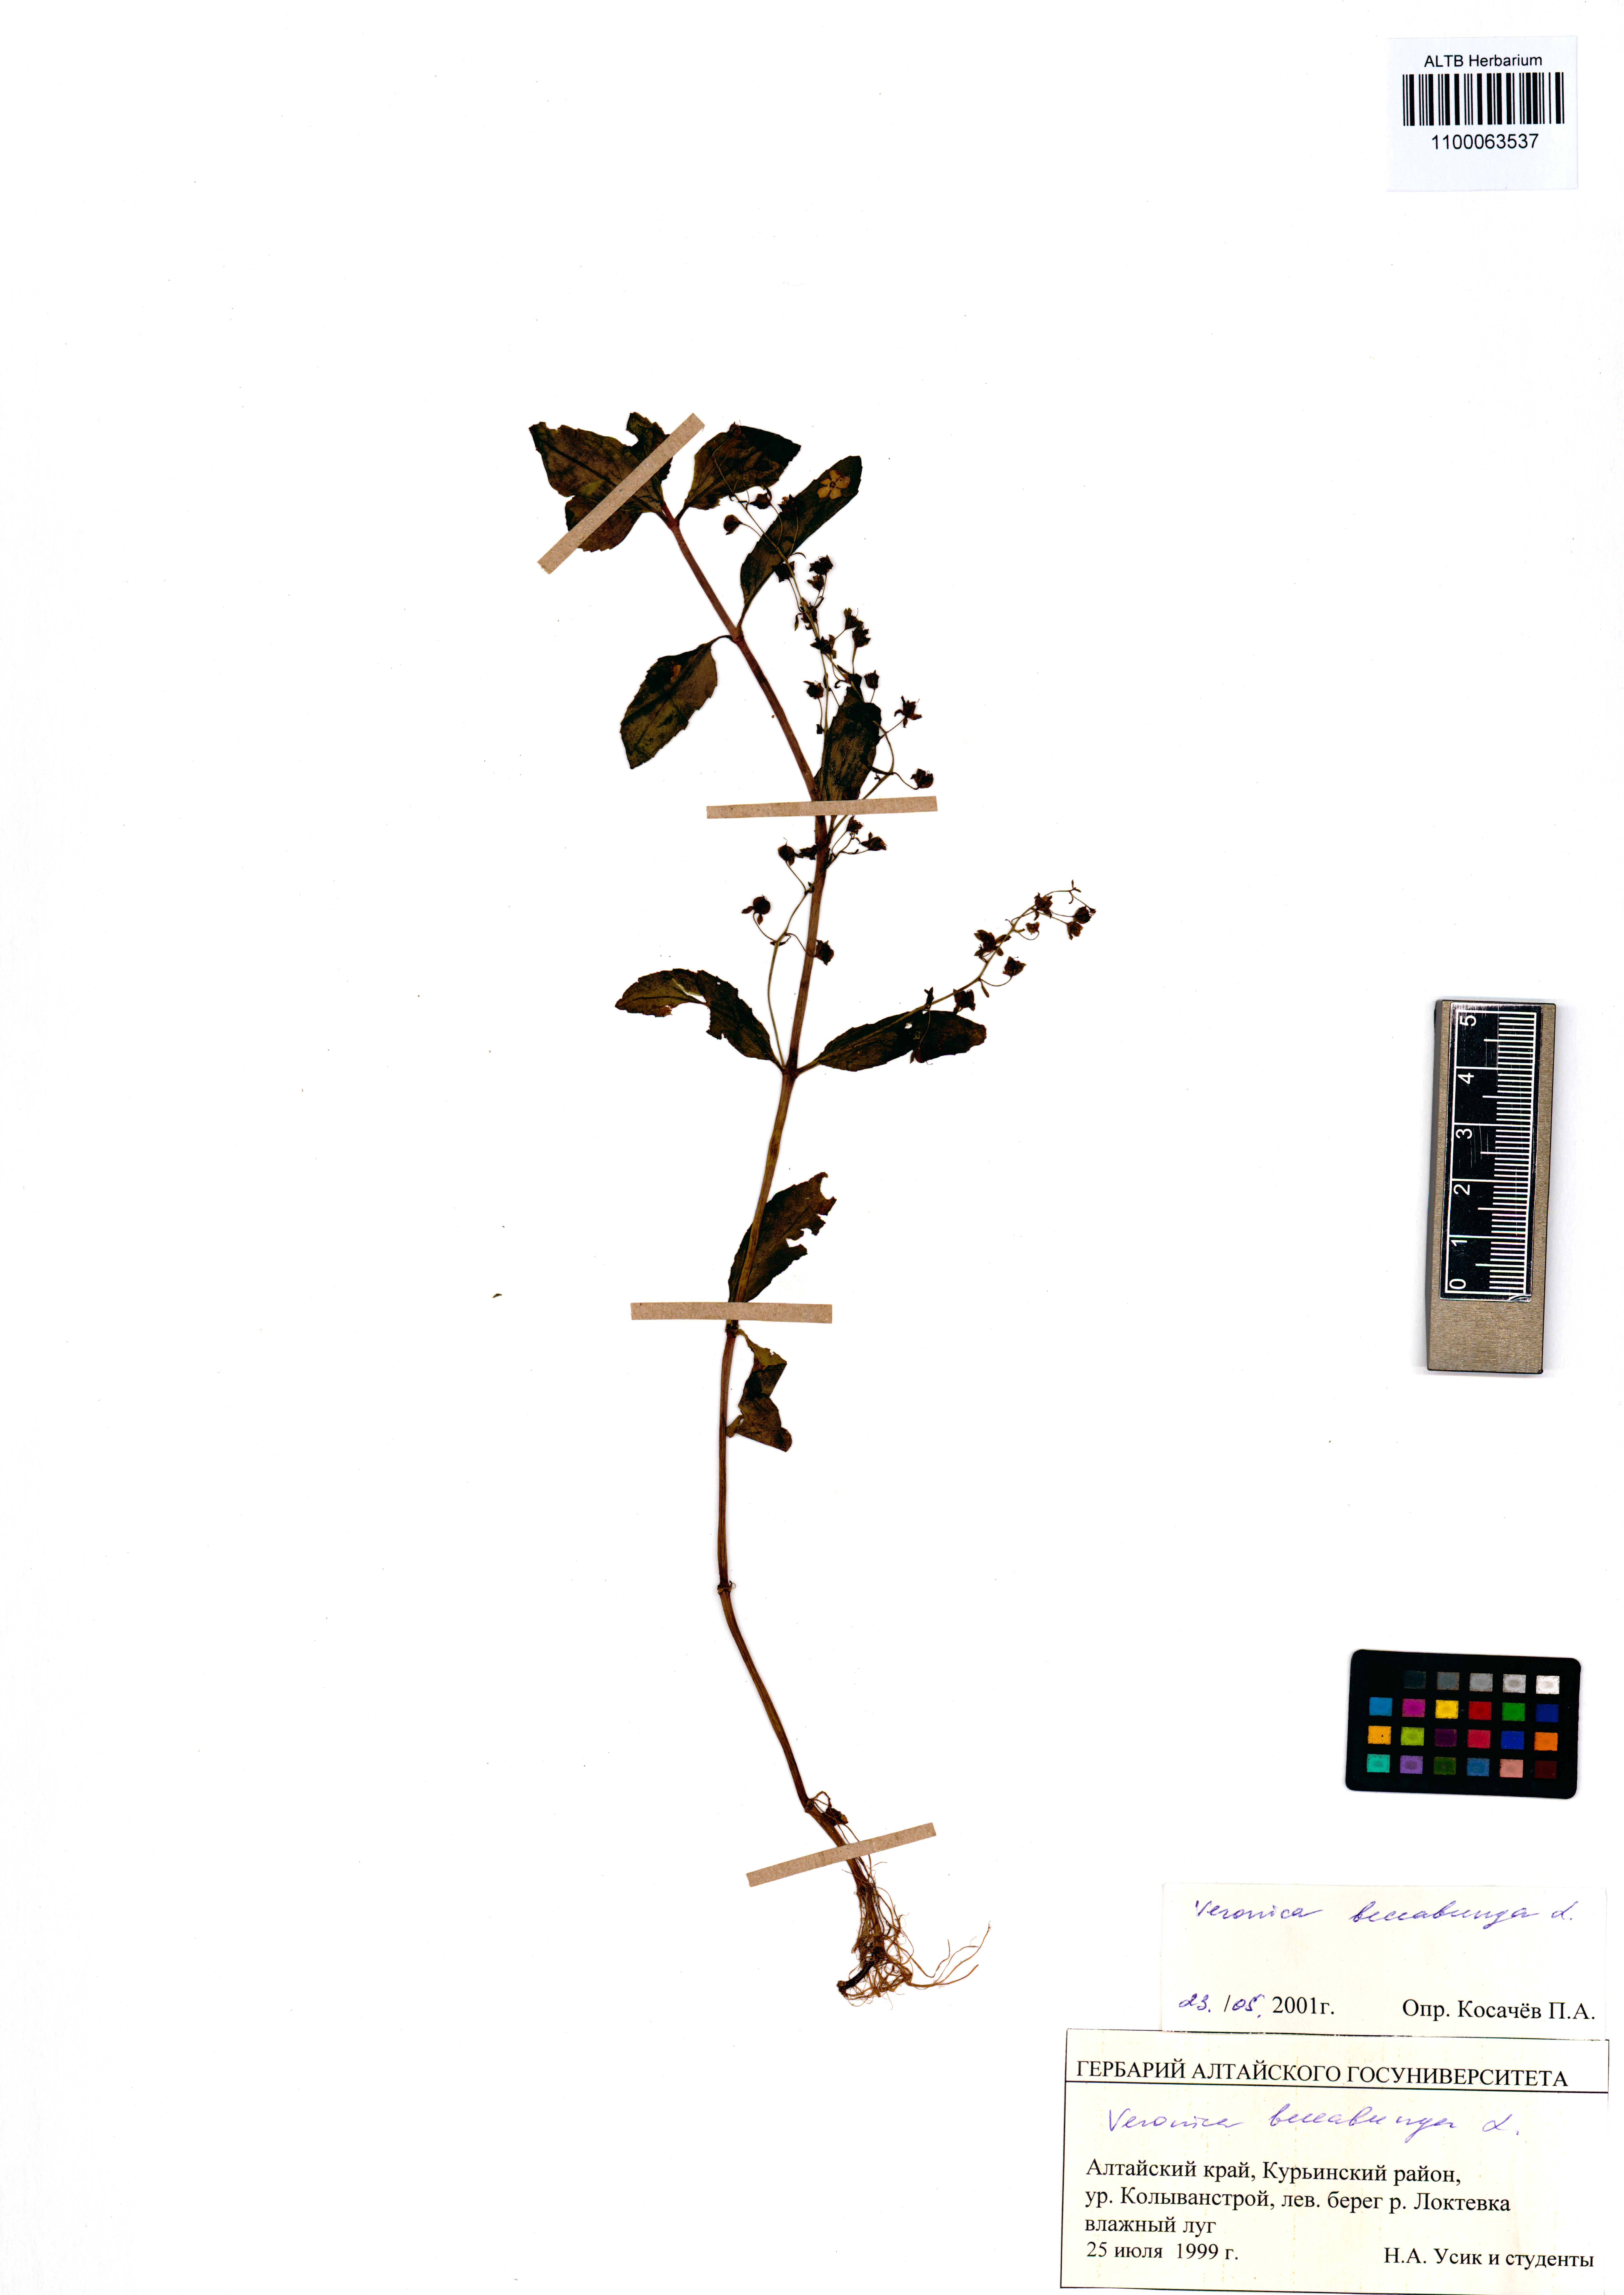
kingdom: Plantae
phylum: Tracheophyta
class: Magnoliopsida
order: Lamiales
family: Plantaginaceae
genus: Veronica
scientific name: Veronica beccabunga
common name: Brooklime
